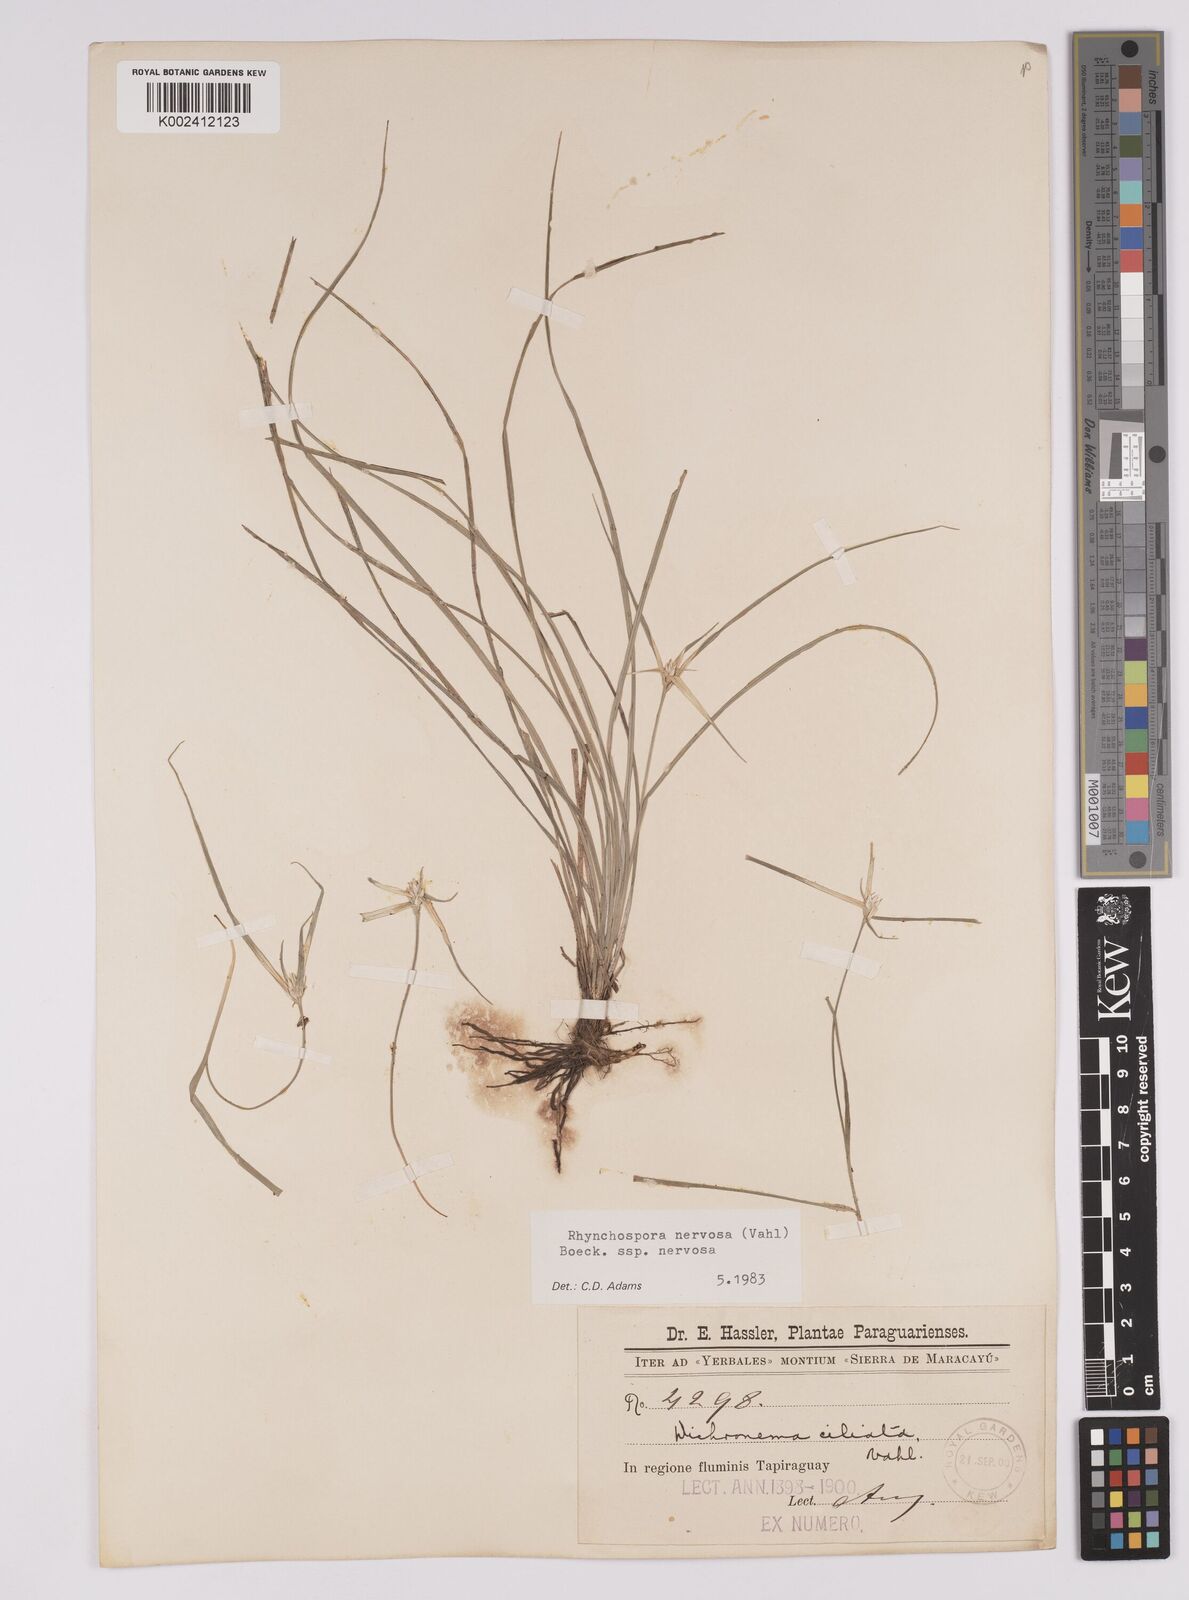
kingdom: Plantae
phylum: Tracheophyta
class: Liliopsida
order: Poales
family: Cyperaceae
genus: Rhynchospora
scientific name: Rhynchospora nervosa
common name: Star sedge
